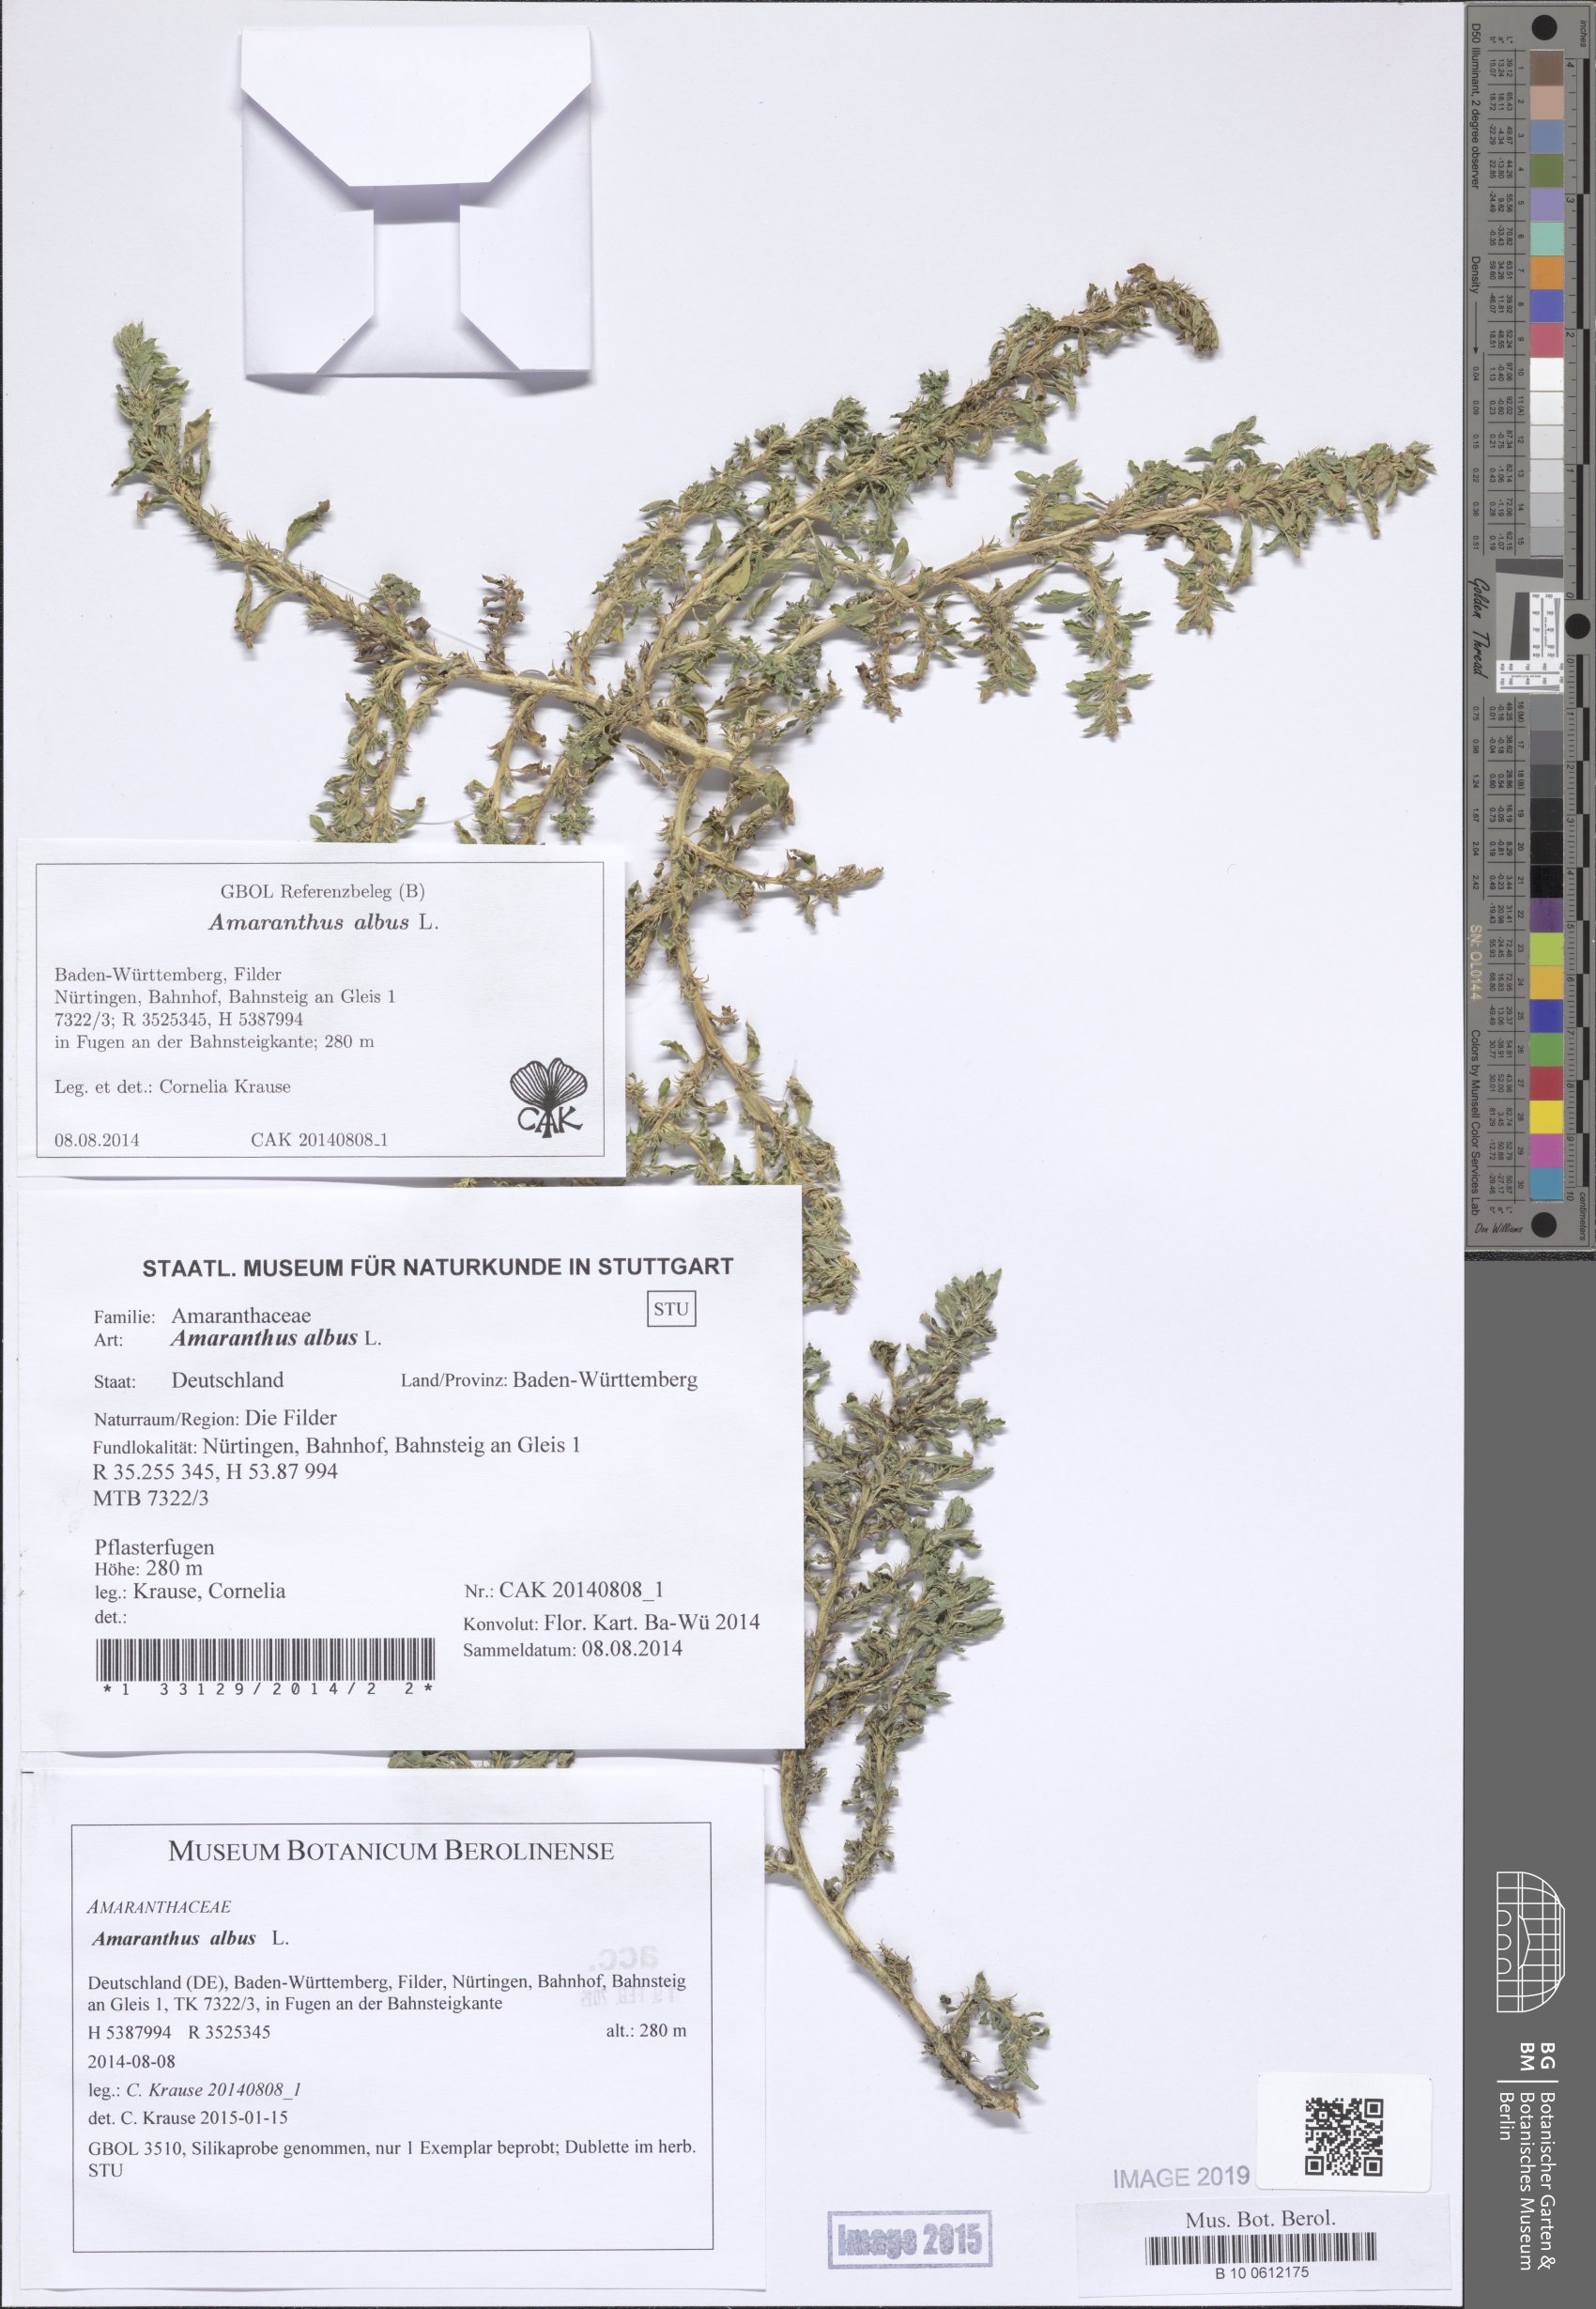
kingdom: Plantae
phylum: Tracheophyta
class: Magnoliopsida
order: Caryophyllales
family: Amaranthaceae
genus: Amaranthus
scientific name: Amaranthus albus
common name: White pigweed
